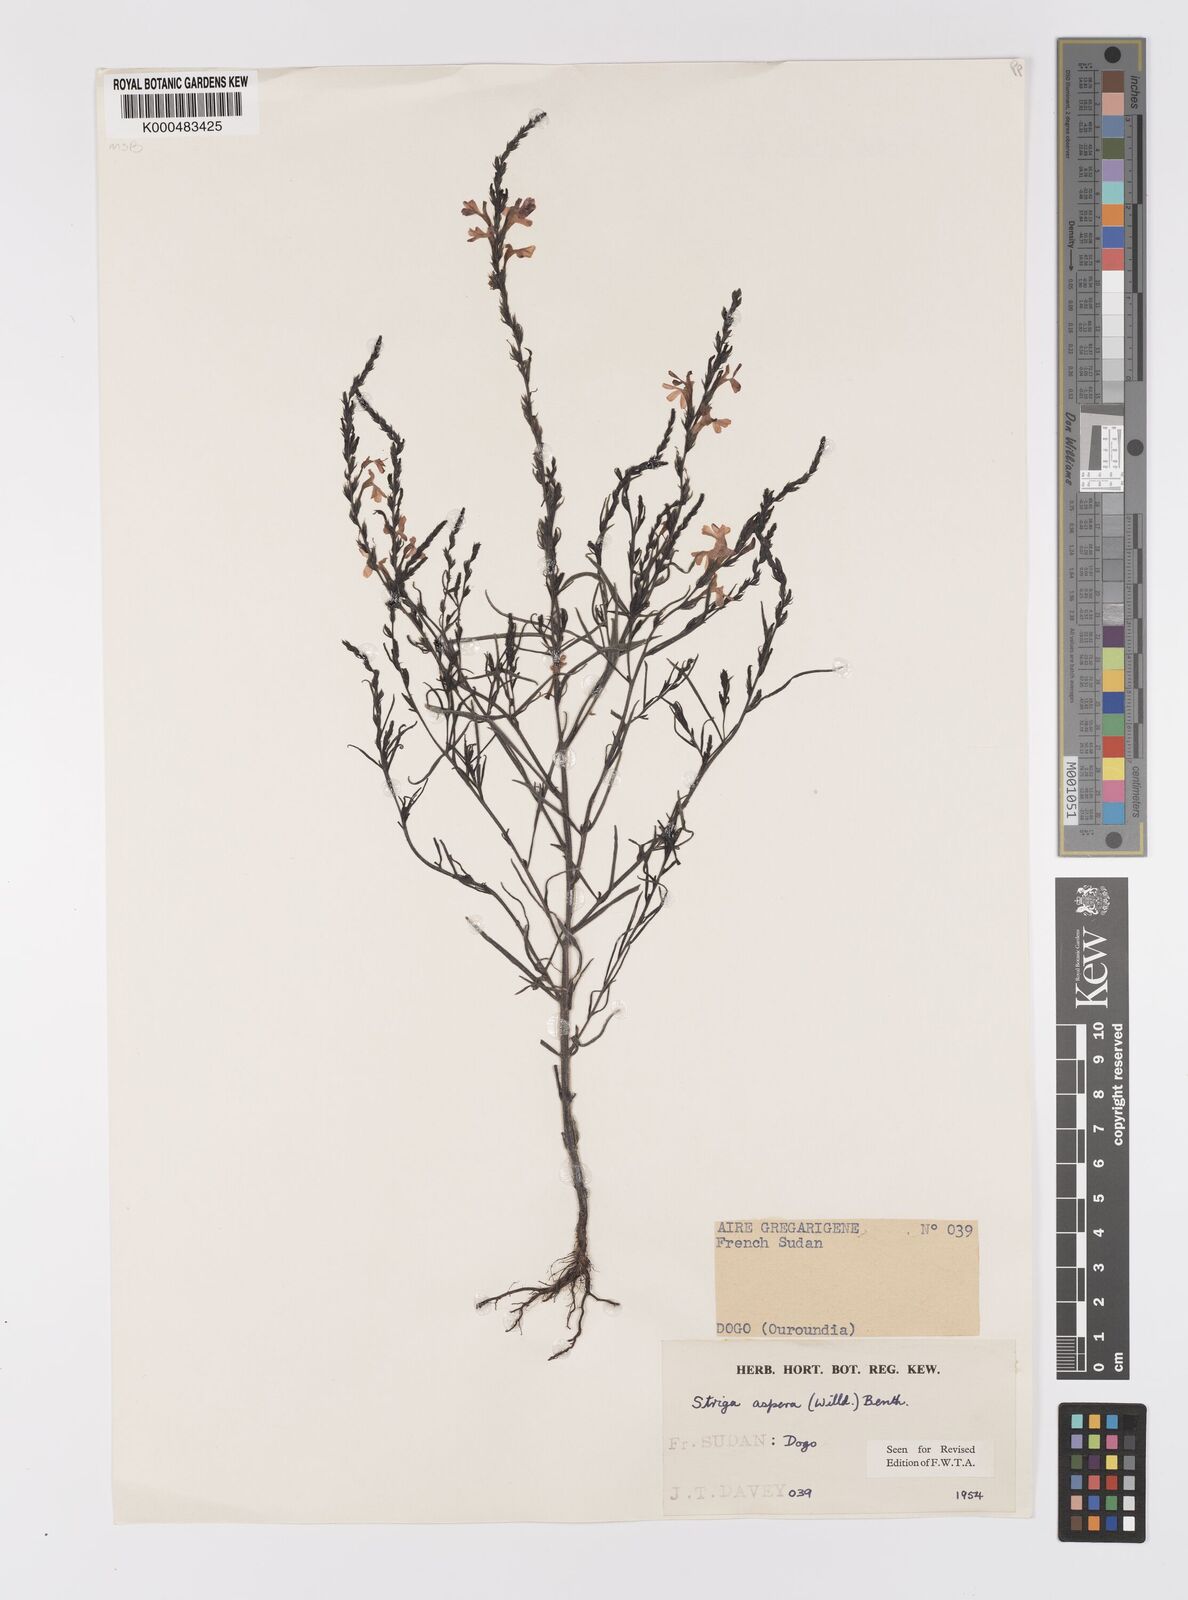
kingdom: Plantae
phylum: Tracheophyta
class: Magnoliopsida
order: Lamiales
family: Orobanchaceae
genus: Striga
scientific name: Striga aspera
